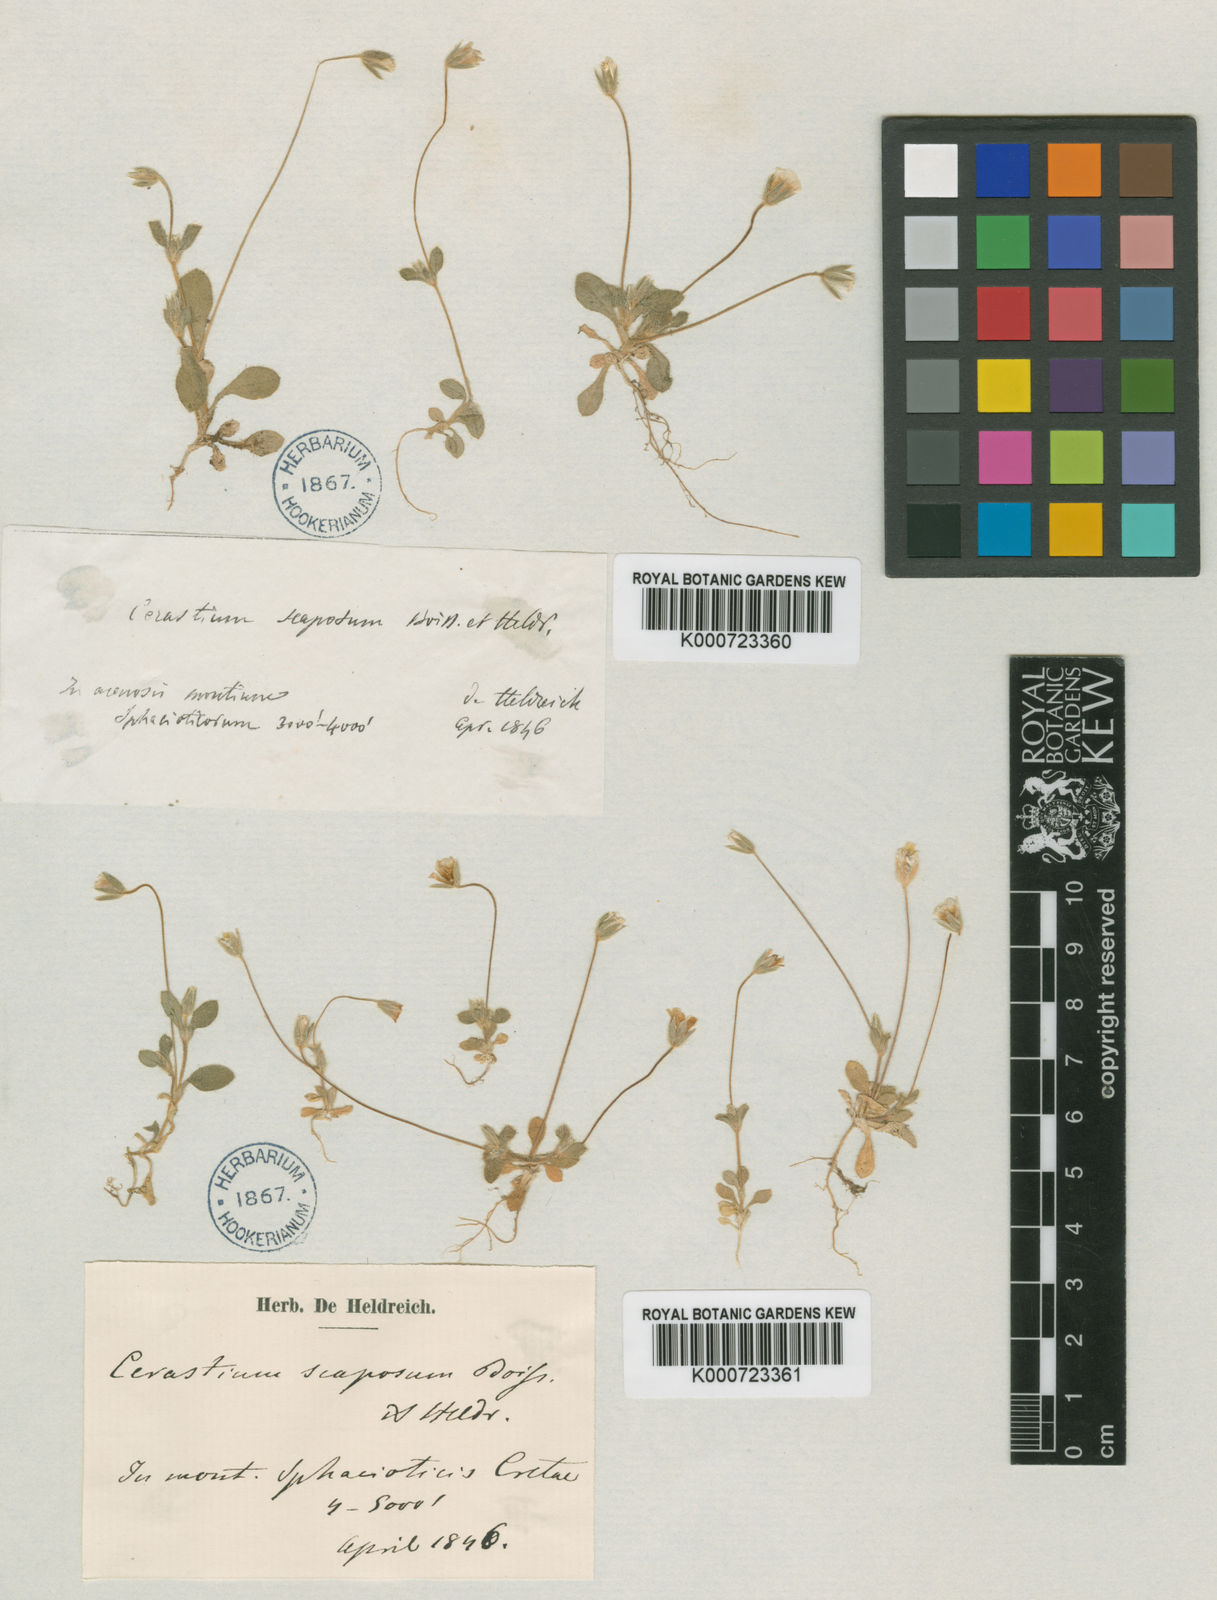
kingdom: Plantae
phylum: Tracheophyta
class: Magnoliopsida
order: Caryophyllales
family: Caryophyllaceae
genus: Cerastium
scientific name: Cerastium scaposum
